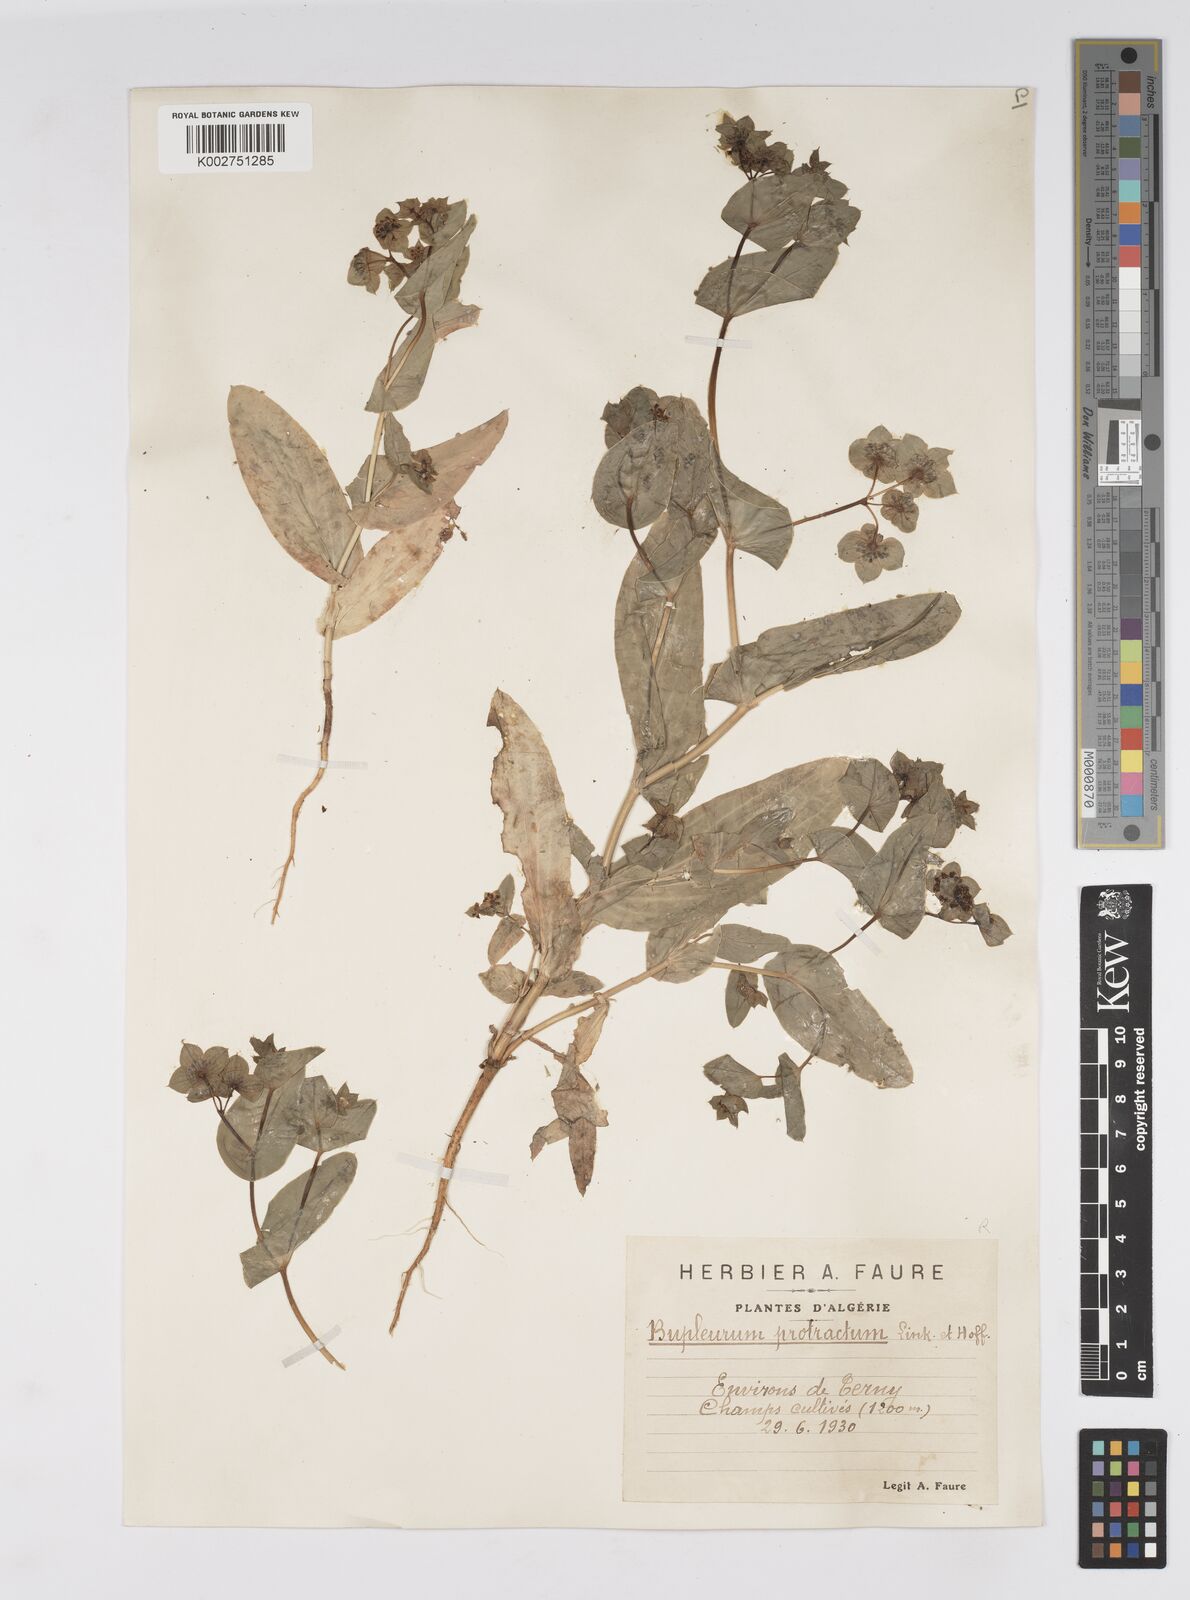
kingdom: Plantae
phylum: Tracheophyta
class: Magnoliopsida
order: Apiales
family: Apiaceae
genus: Bupleurum
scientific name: Bupleurum subovatum
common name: False thorow-wax
